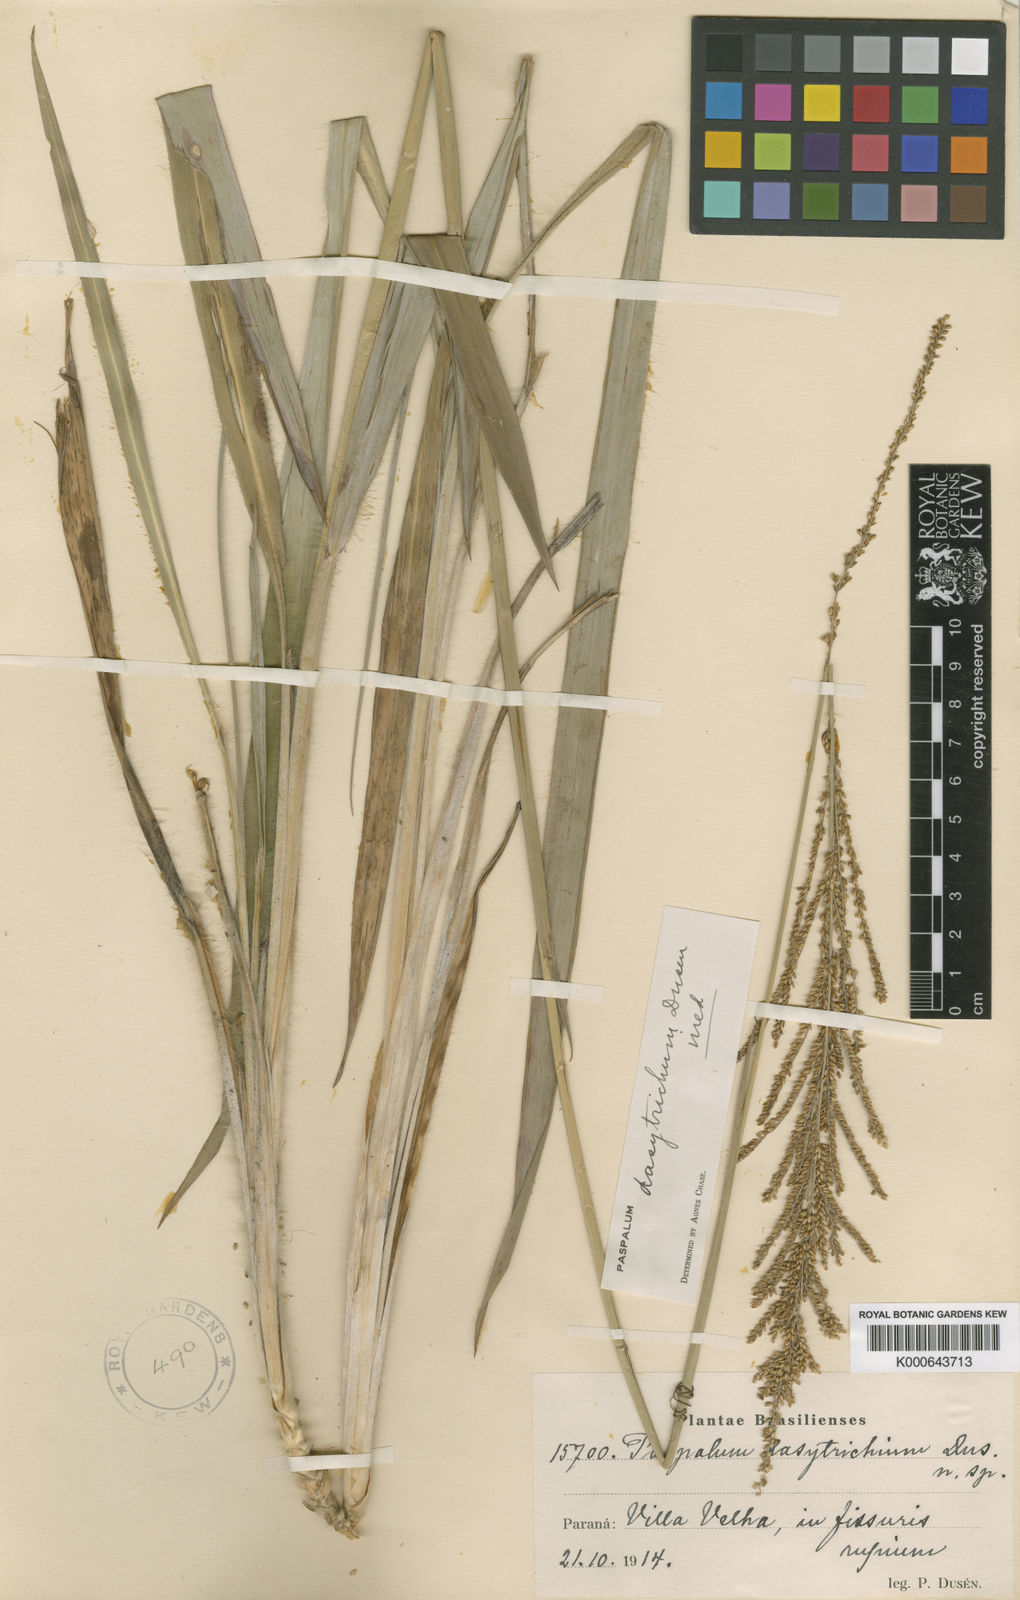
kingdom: Plantae
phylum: Tracheophyta
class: Liliopsida
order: Poales
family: Poaceae
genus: Paspalum
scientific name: Paspalum
